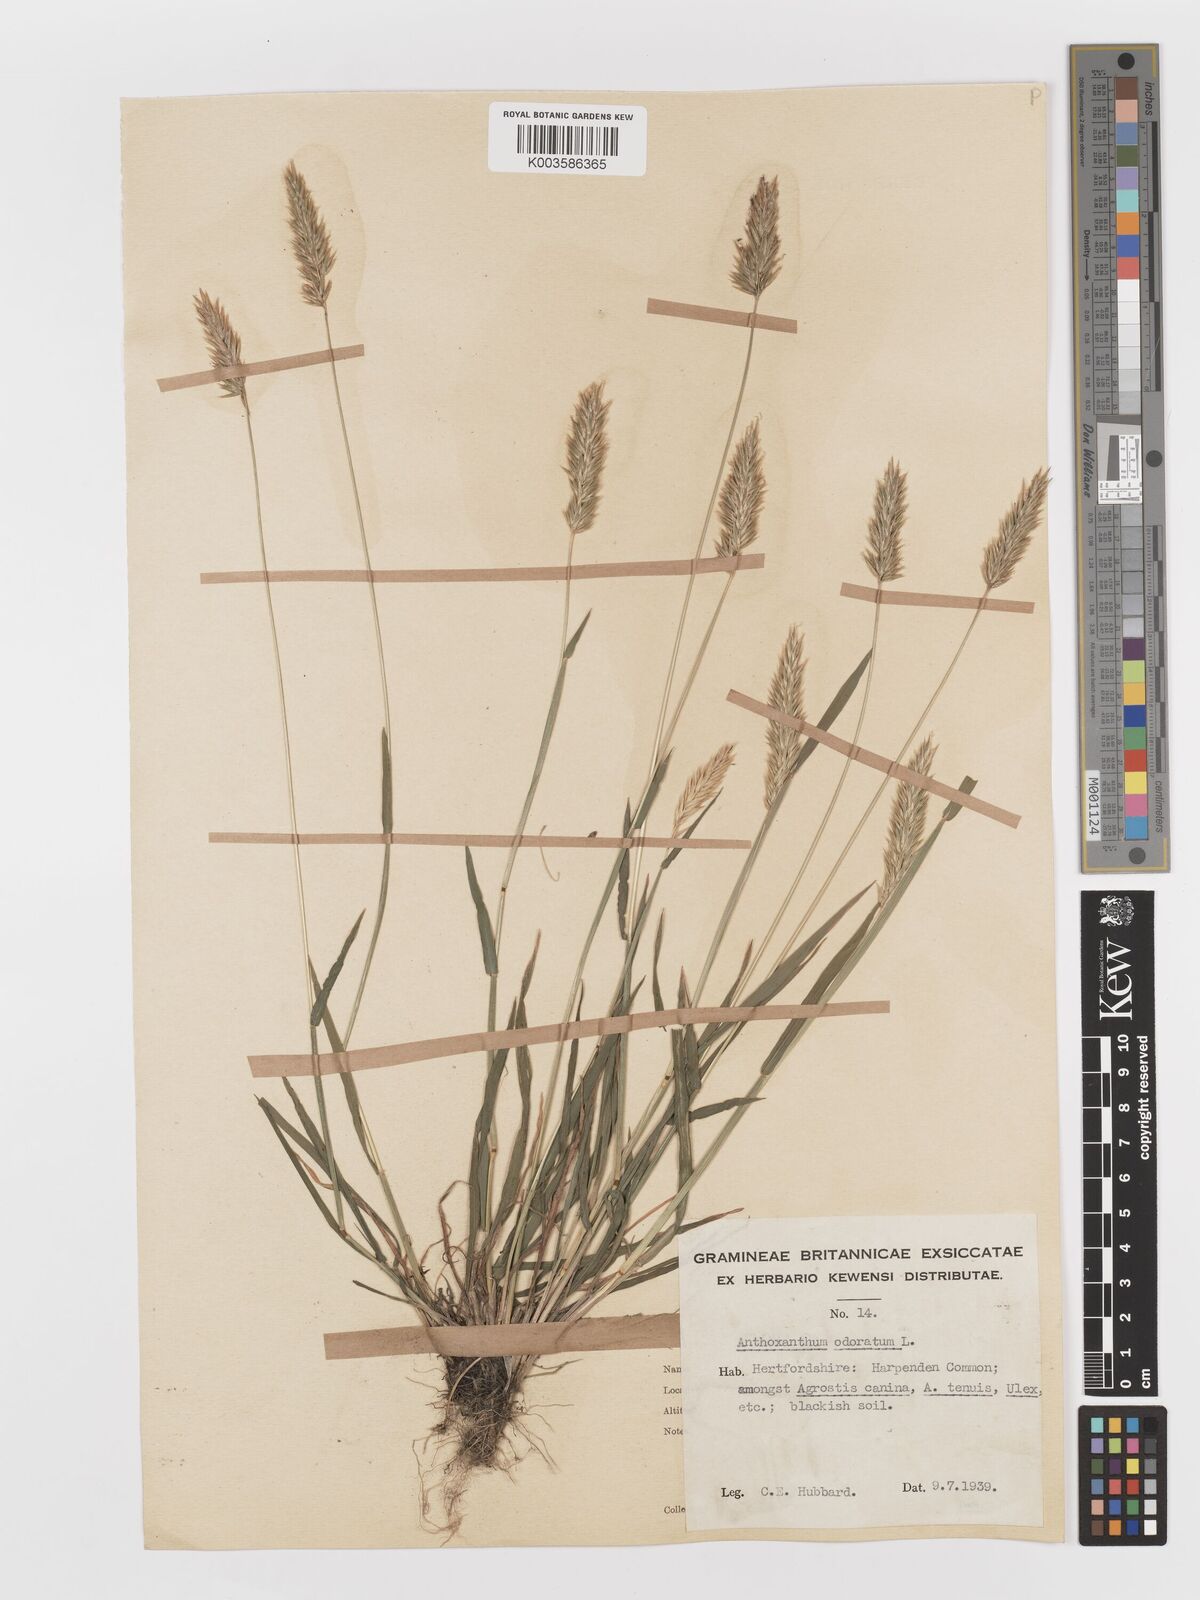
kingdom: Plantae
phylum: Tracheophyta
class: Liliopsida
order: Poales
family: Poaceae
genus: Anthoxanthum
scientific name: Anthoxanthum odoratum
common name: Sweet vernalgrass
